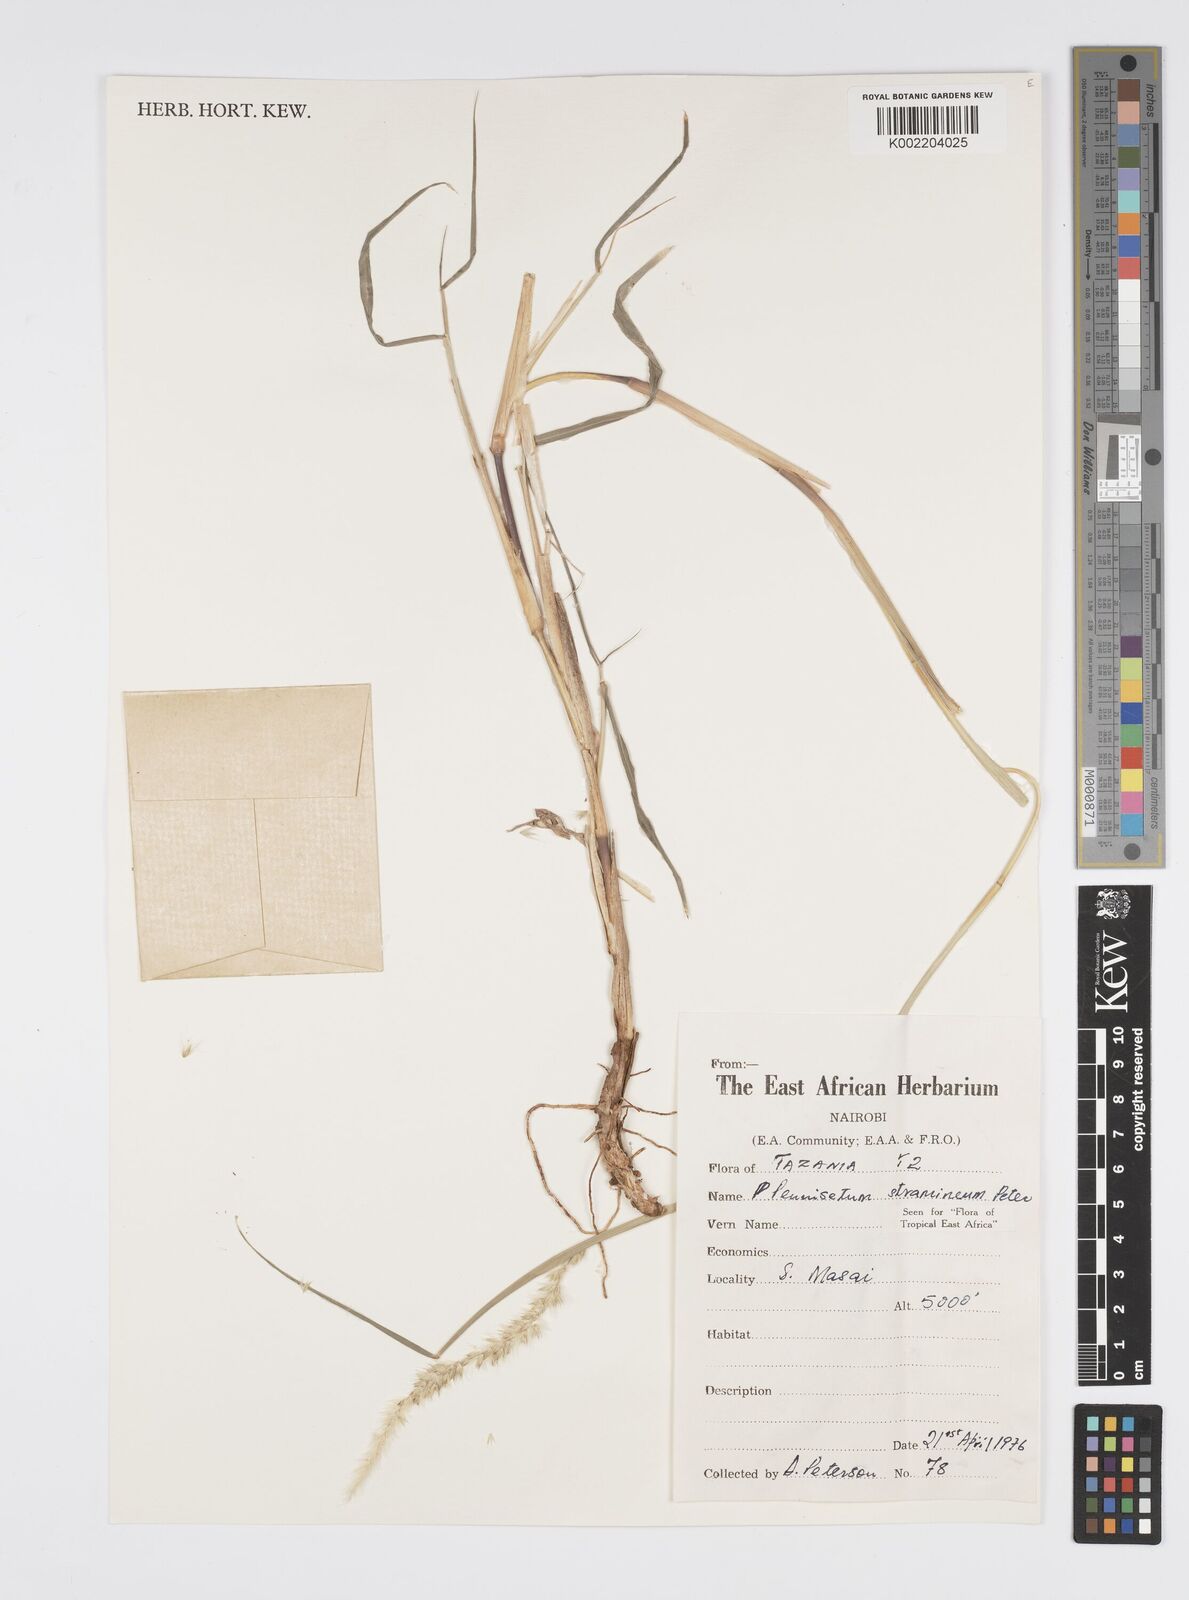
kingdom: Plantae
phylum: Tracheophyta
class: Liliopsida
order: Poales
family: Poaceae
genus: Cenchrus
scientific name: Cenchrus stramineus
